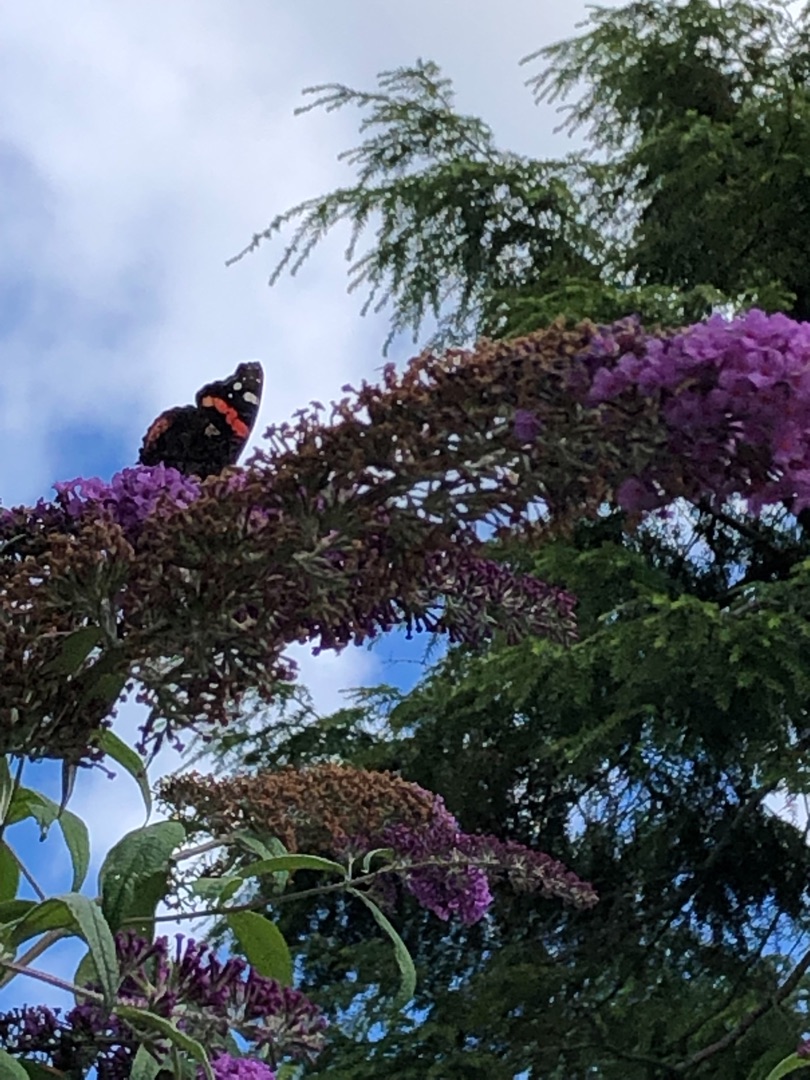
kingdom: Animalia
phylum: Arthropoda
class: Insecta
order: Lepidoptera
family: Nymphalidae
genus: Vanessa
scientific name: Vanessa atalanta
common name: Admiral
